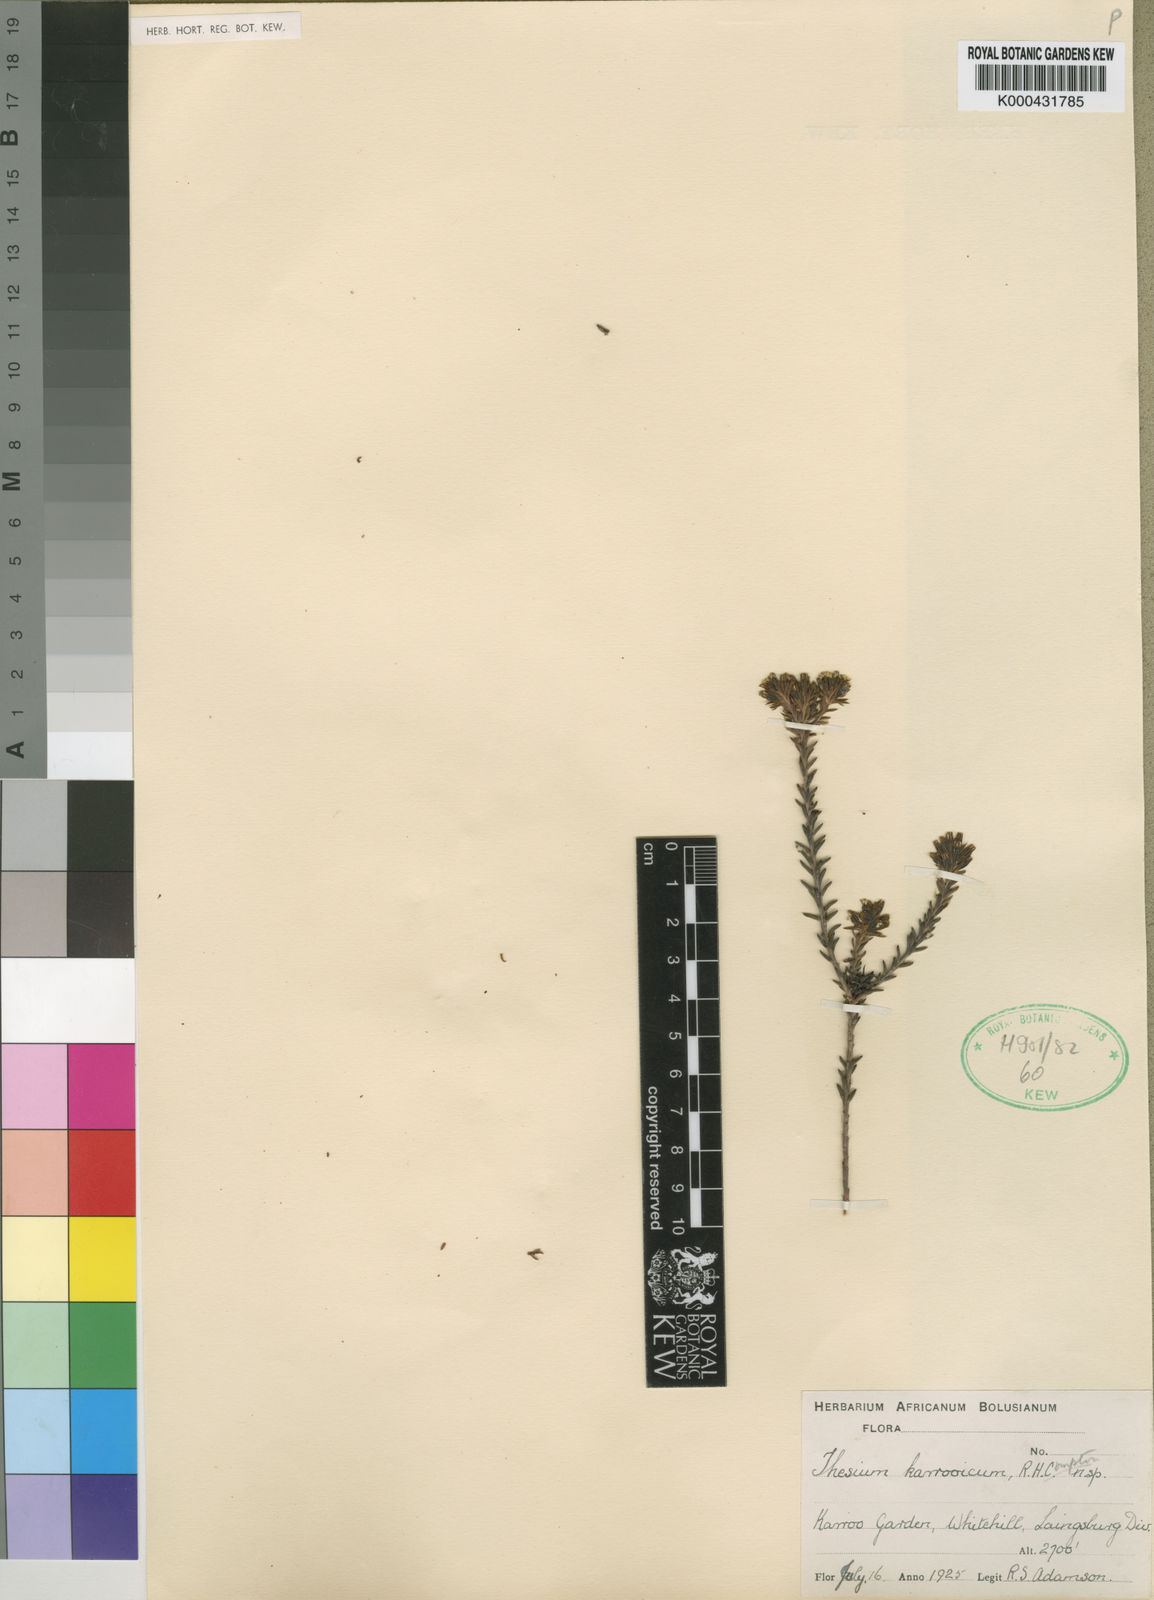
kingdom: Plantae
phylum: Tracheophyta
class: Magnoliopsida
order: Santalales
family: Thesiaceae
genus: Thesium
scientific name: Thesium karooicum
